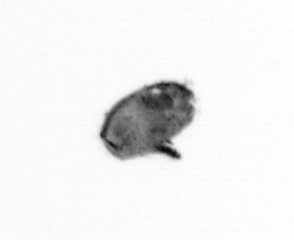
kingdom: Animalia
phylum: Arthropoda
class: Maxillopoda
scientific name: Maxillopoda
